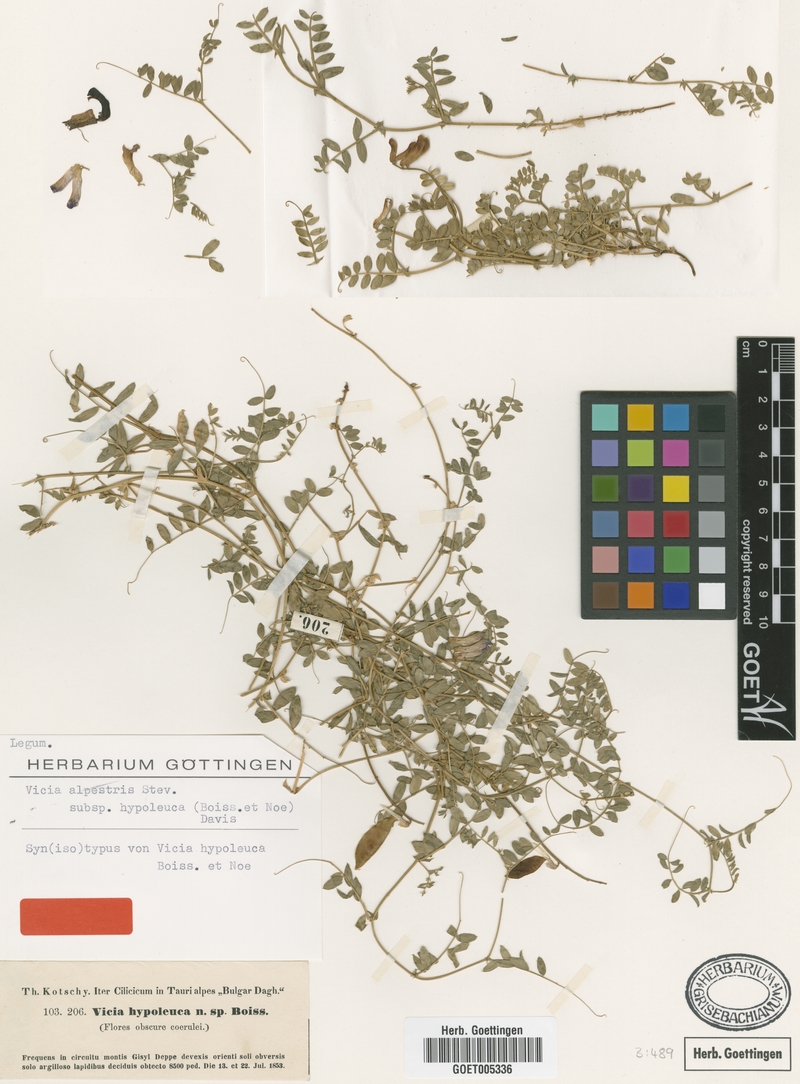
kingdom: Plantae
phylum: Tracheophyta
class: Magnoliopsida
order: Fabales
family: Fabaceae
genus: Vicia
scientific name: Vicia alpestris
